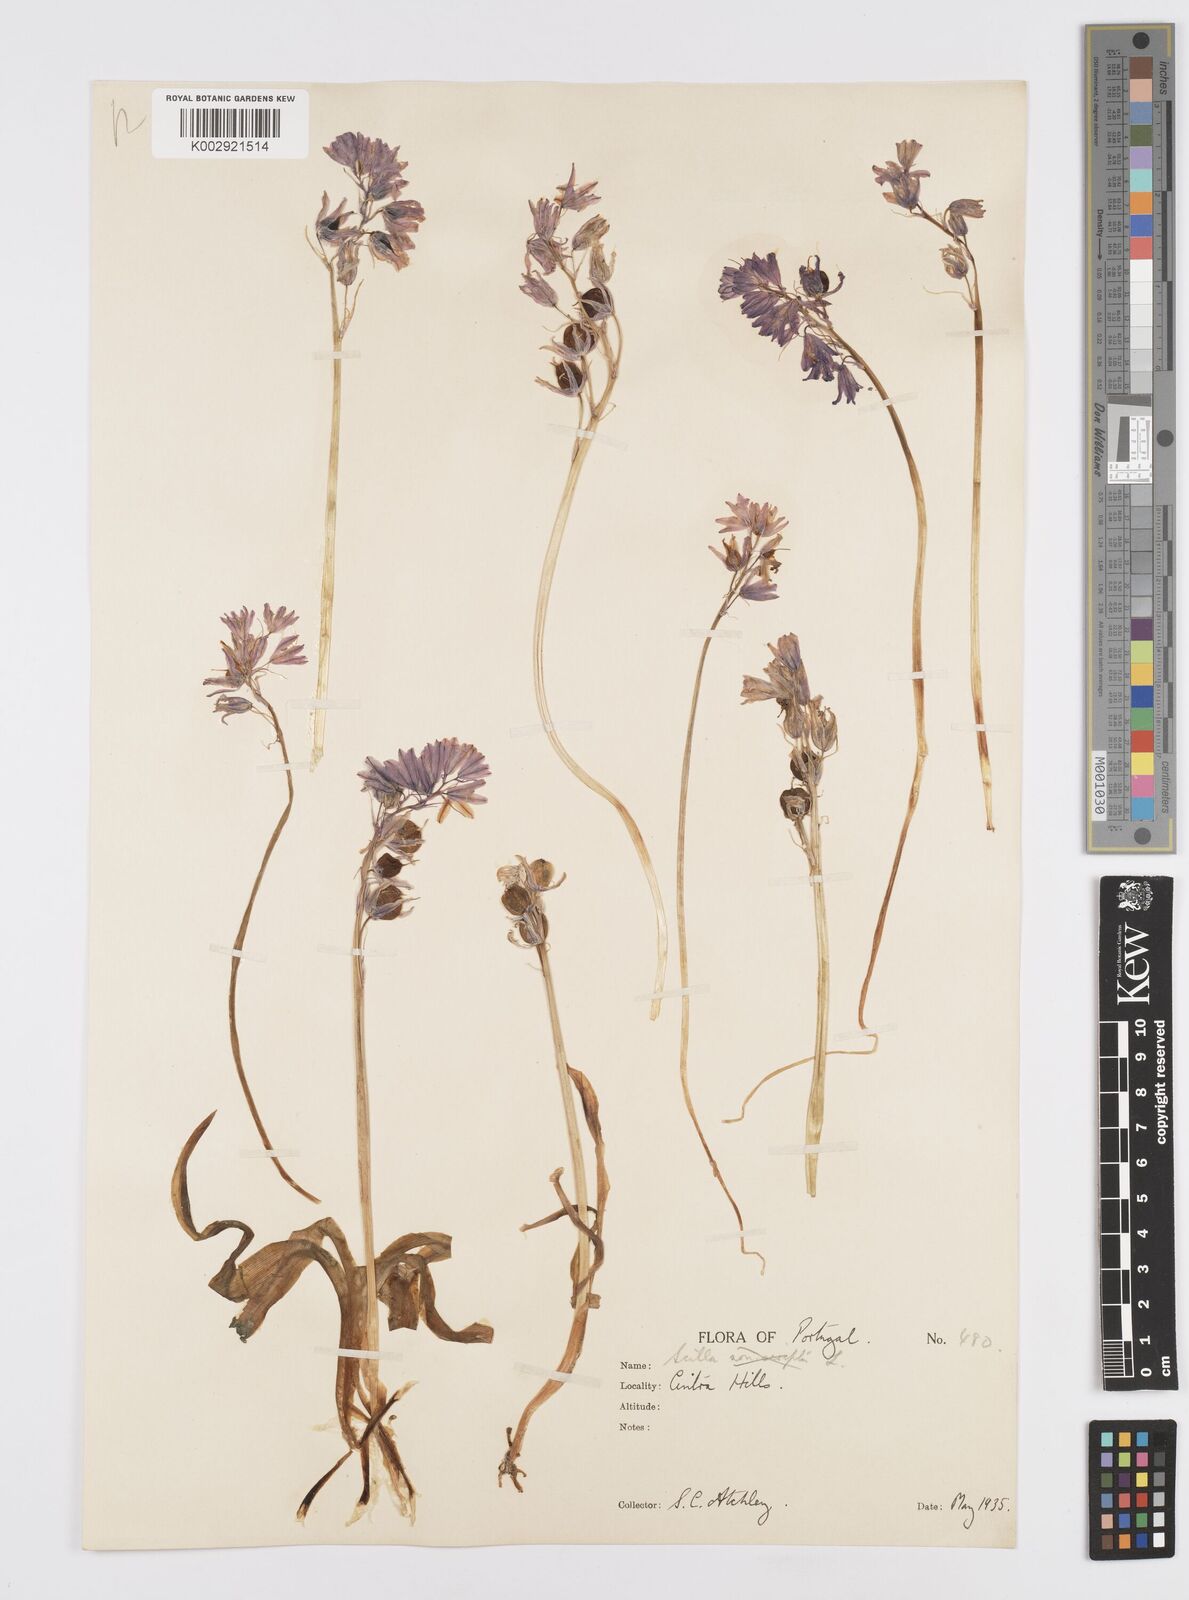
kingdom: Plantae
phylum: Tracheophyta
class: Liliopsida
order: Asparagales
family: Asparagaceae
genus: Hyacinthoides
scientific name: Hyacinthoides hispanica
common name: Spanish bluebell
